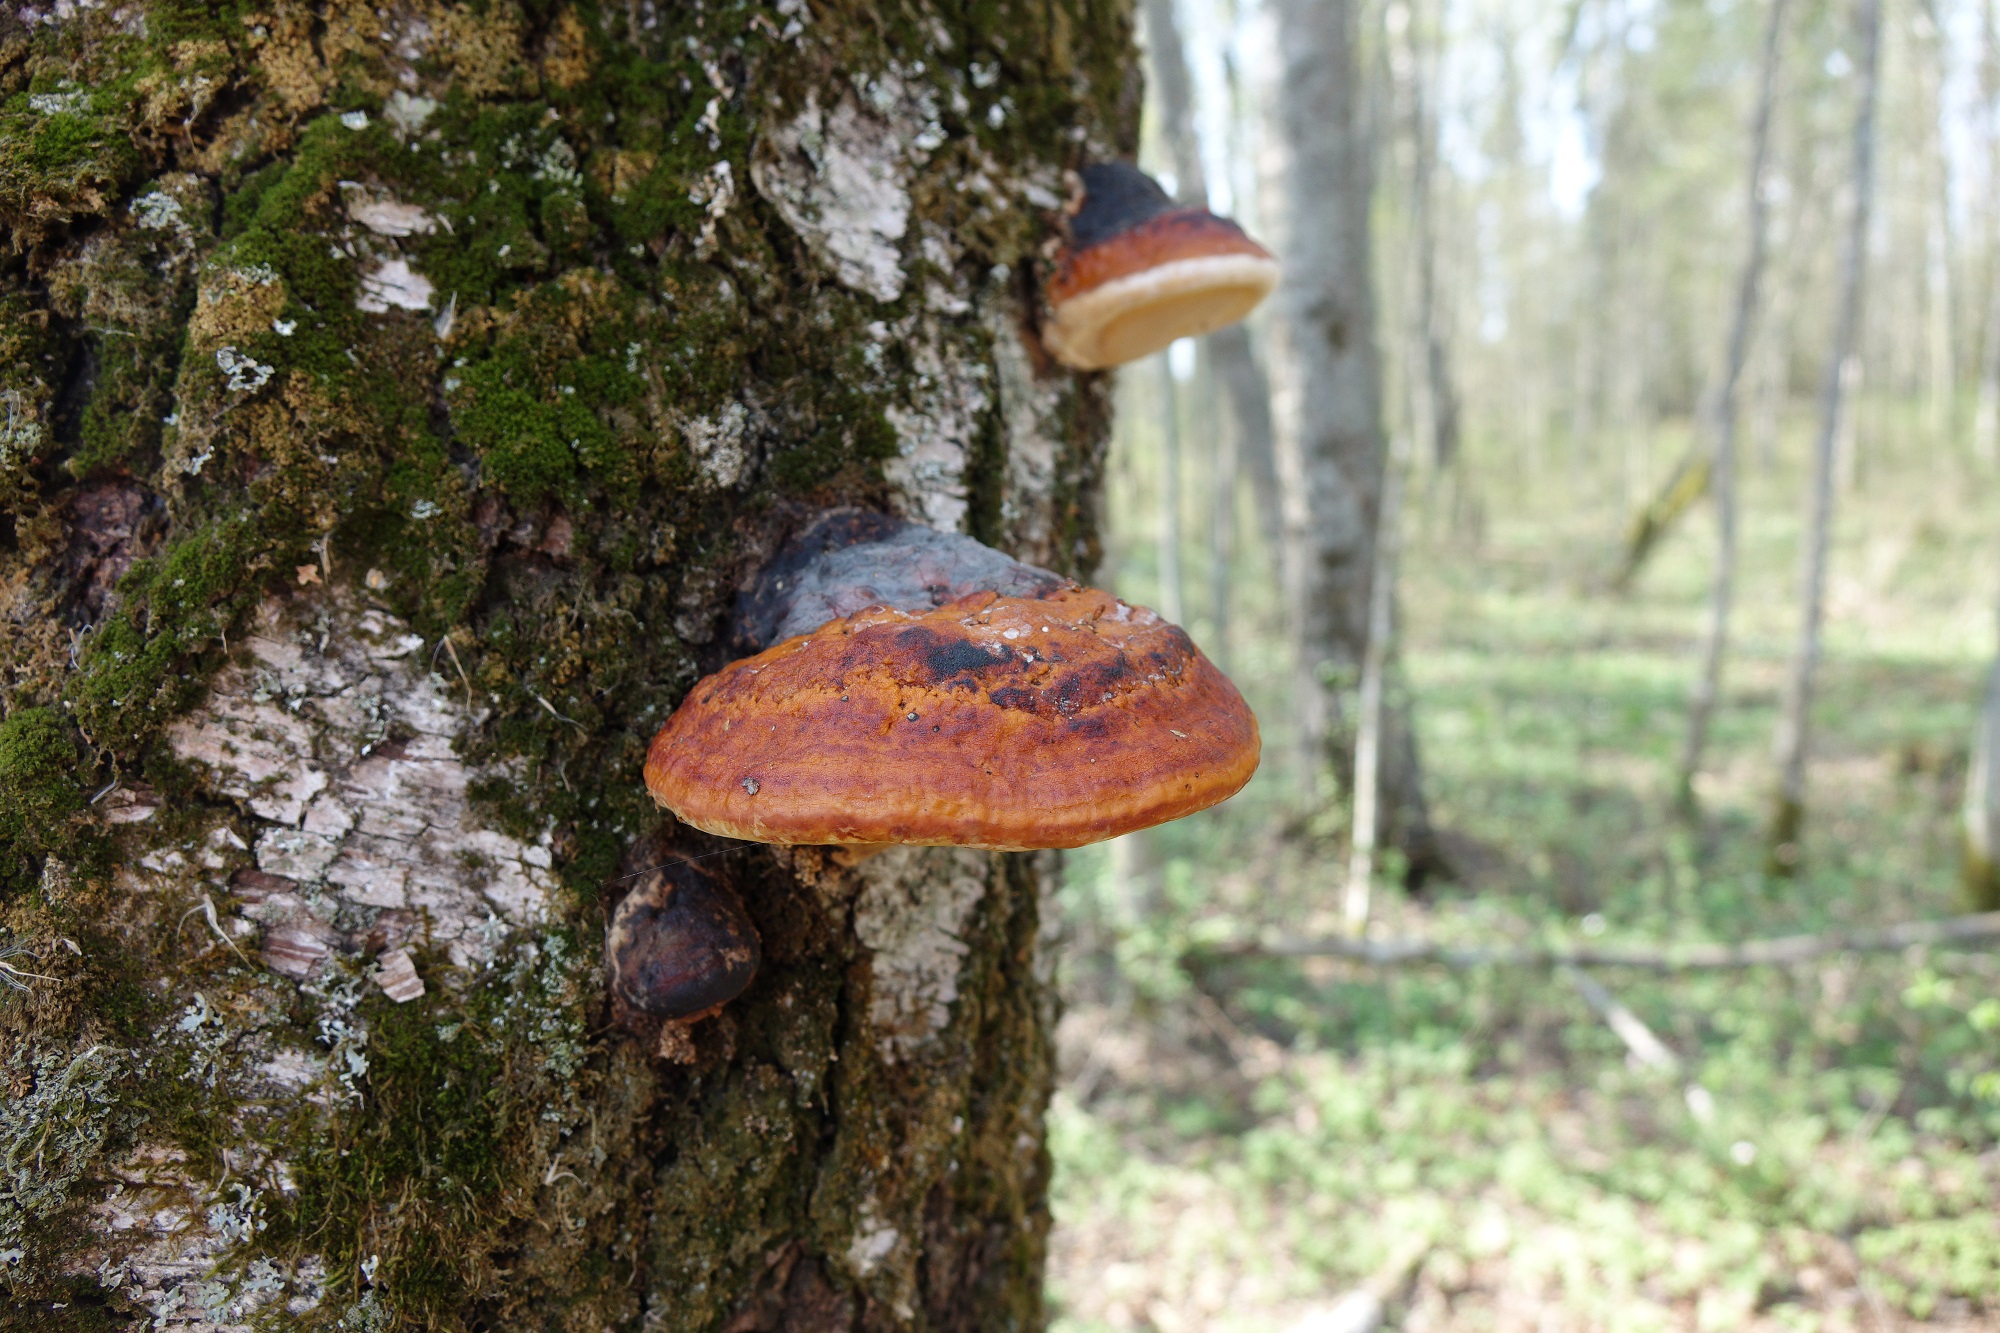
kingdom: Fungi
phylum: Basidiomycota
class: Agaricomycetes
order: Polyporales
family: Fomitopsidaceae
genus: Fomitopsis
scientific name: Fomitopsis pinicola
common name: Red-belted bracket
